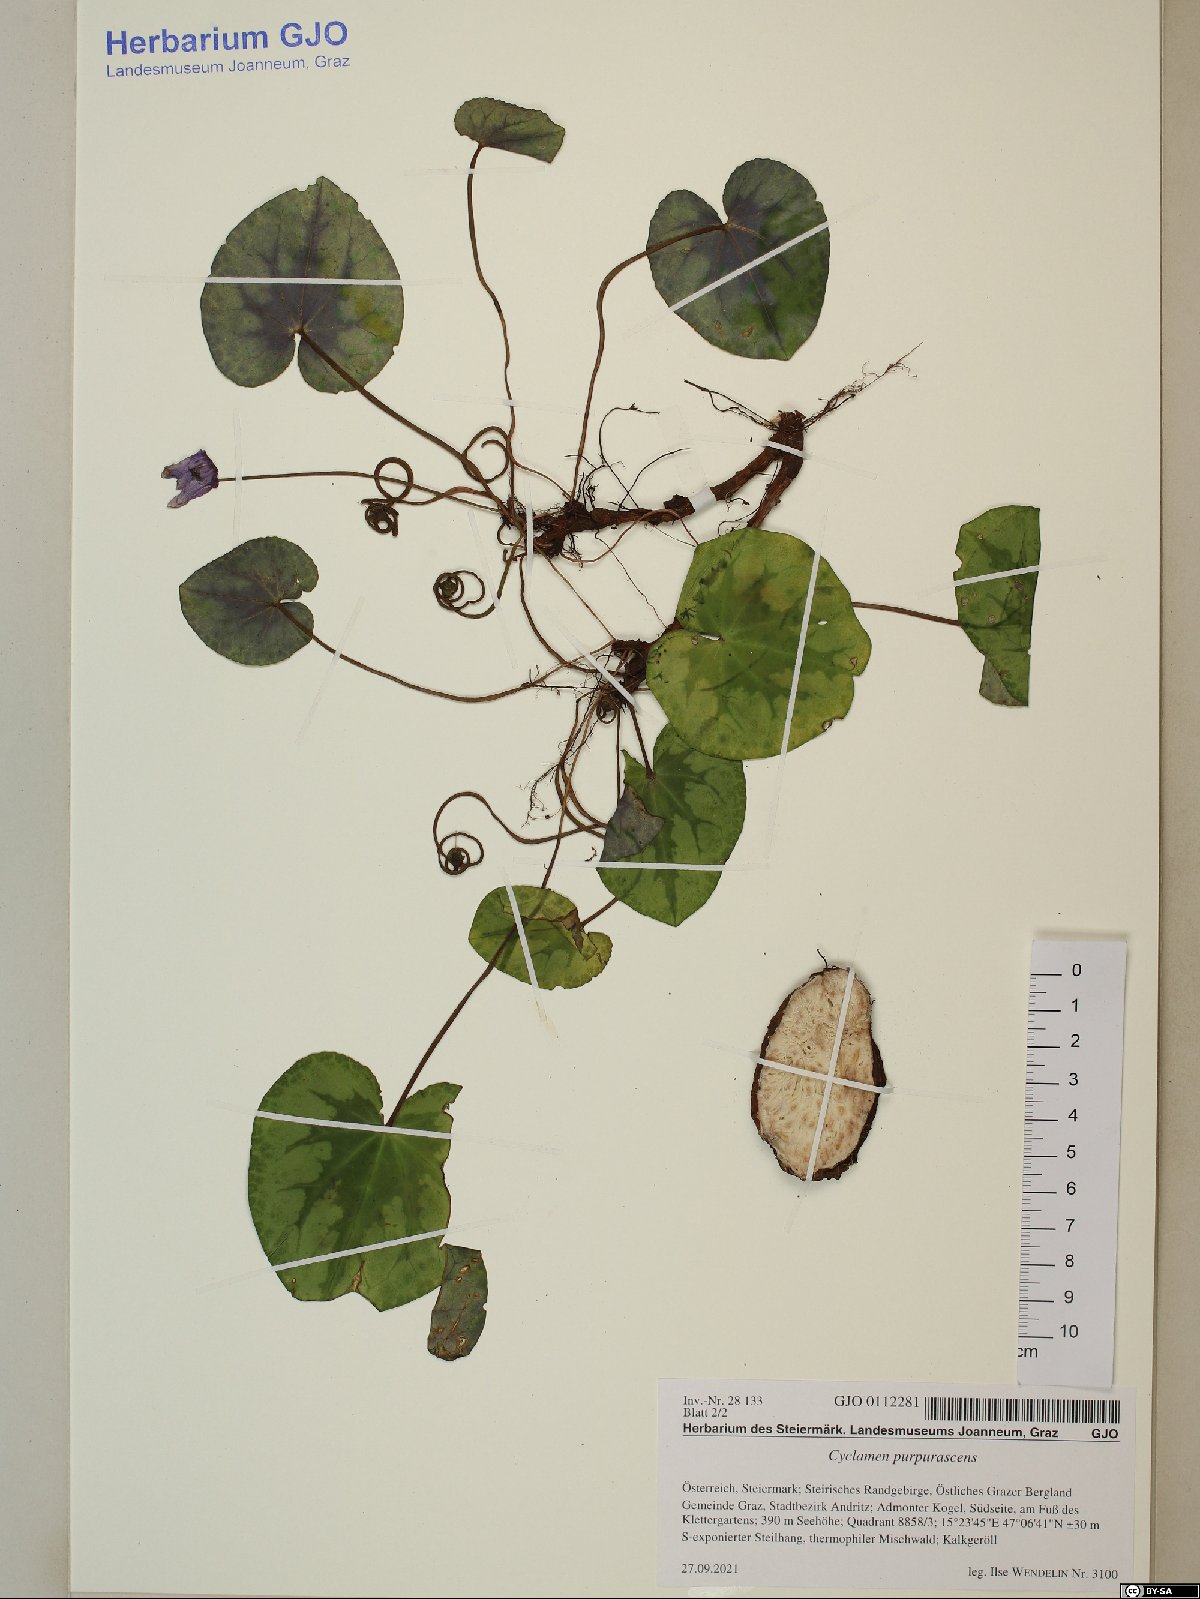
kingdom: Plantae
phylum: Tracheophyta
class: Magnoliopsida
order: Ericales
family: Primulaceae
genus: Cyclamen
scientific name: Cyclamen purpurascens
